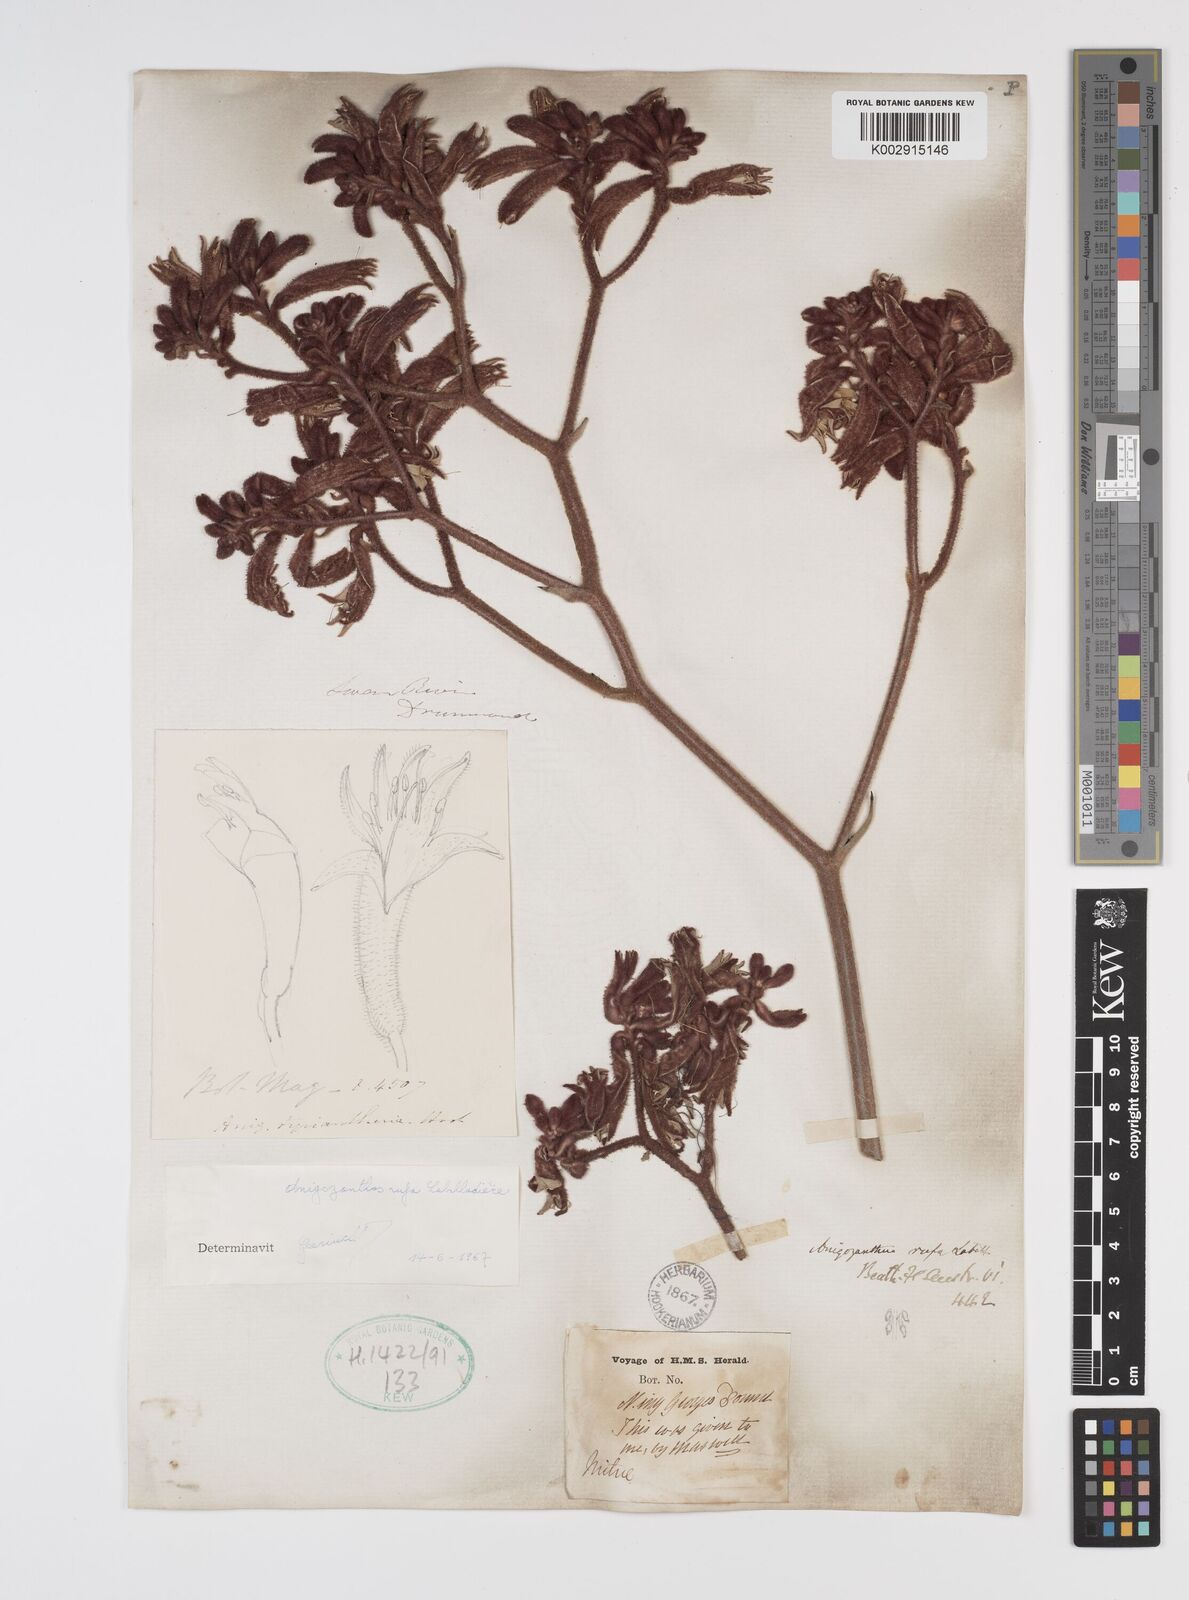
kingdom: Plantae
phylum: Tracheophyta
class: Liliopsida
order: Commelinales
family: Haemodoraceae
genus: Anigozanthos
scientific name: Anigozanthos rufus
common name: Red kangaroo-paw
